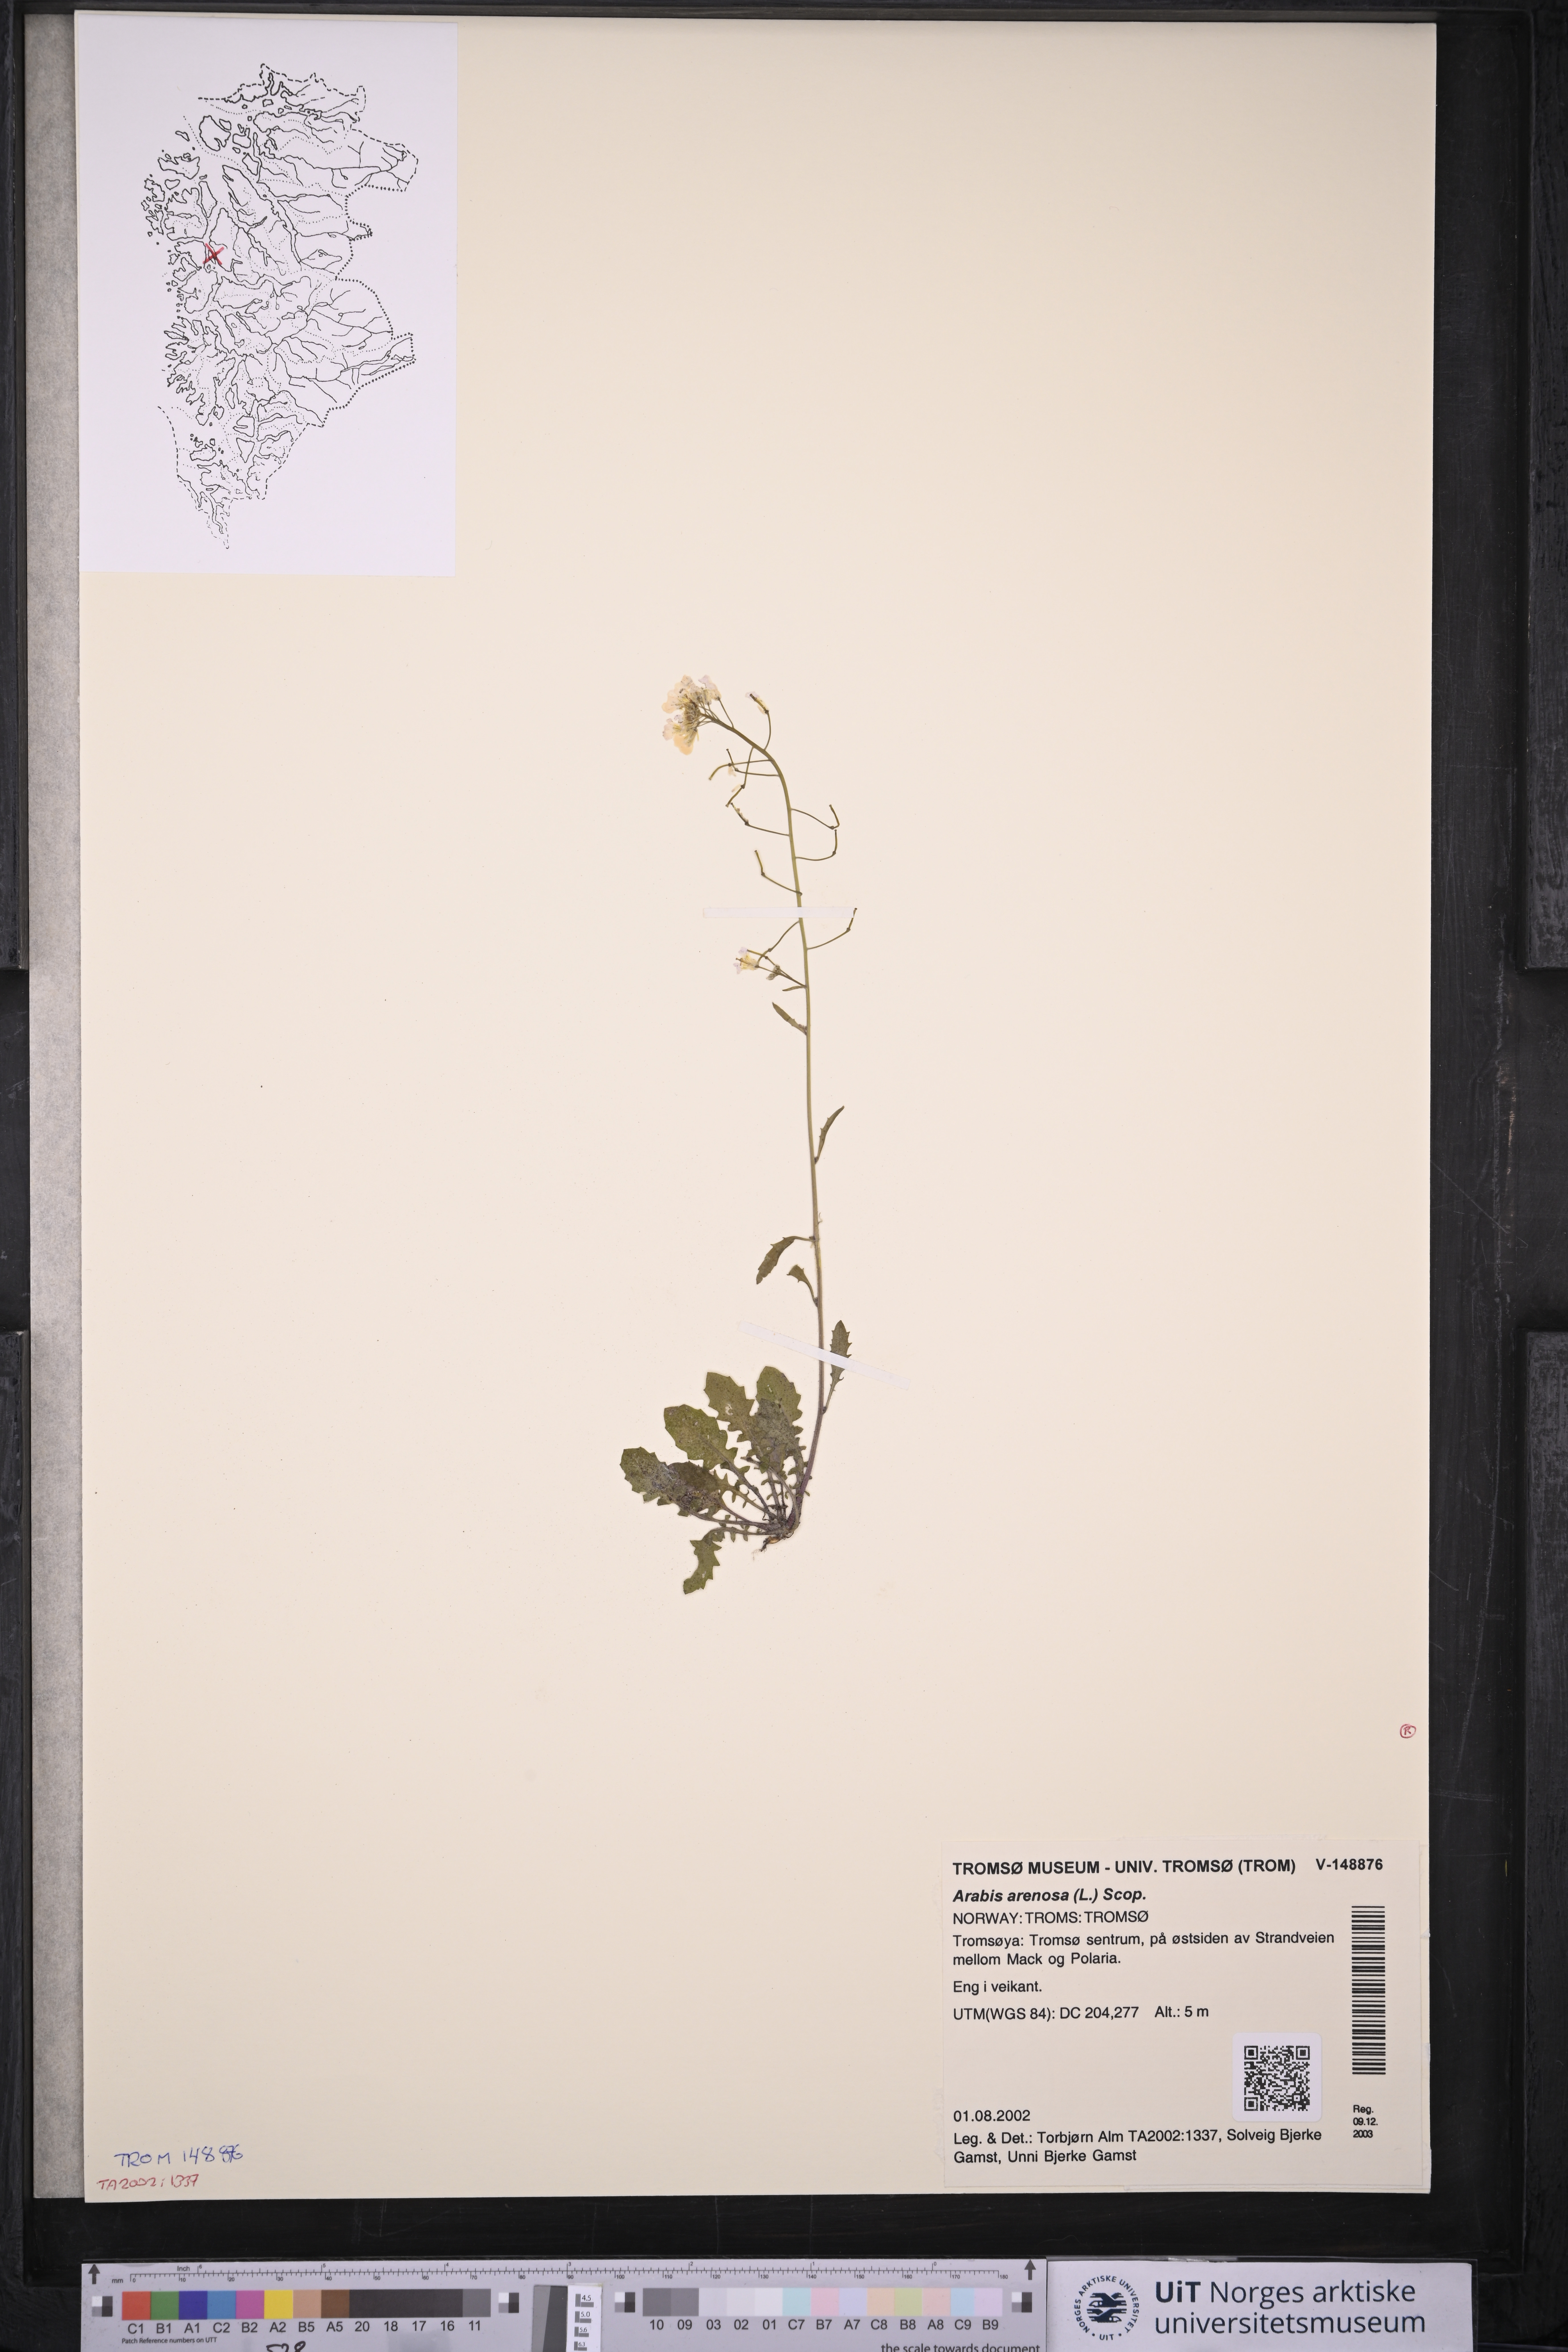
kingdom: Plantae
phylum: Tracheophyta
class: Magnoliopsida
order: Brassicales
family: Brassicaceae
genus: Arabidopsis
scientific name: Arabidopsis arenosa
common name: Sand rock-cress
